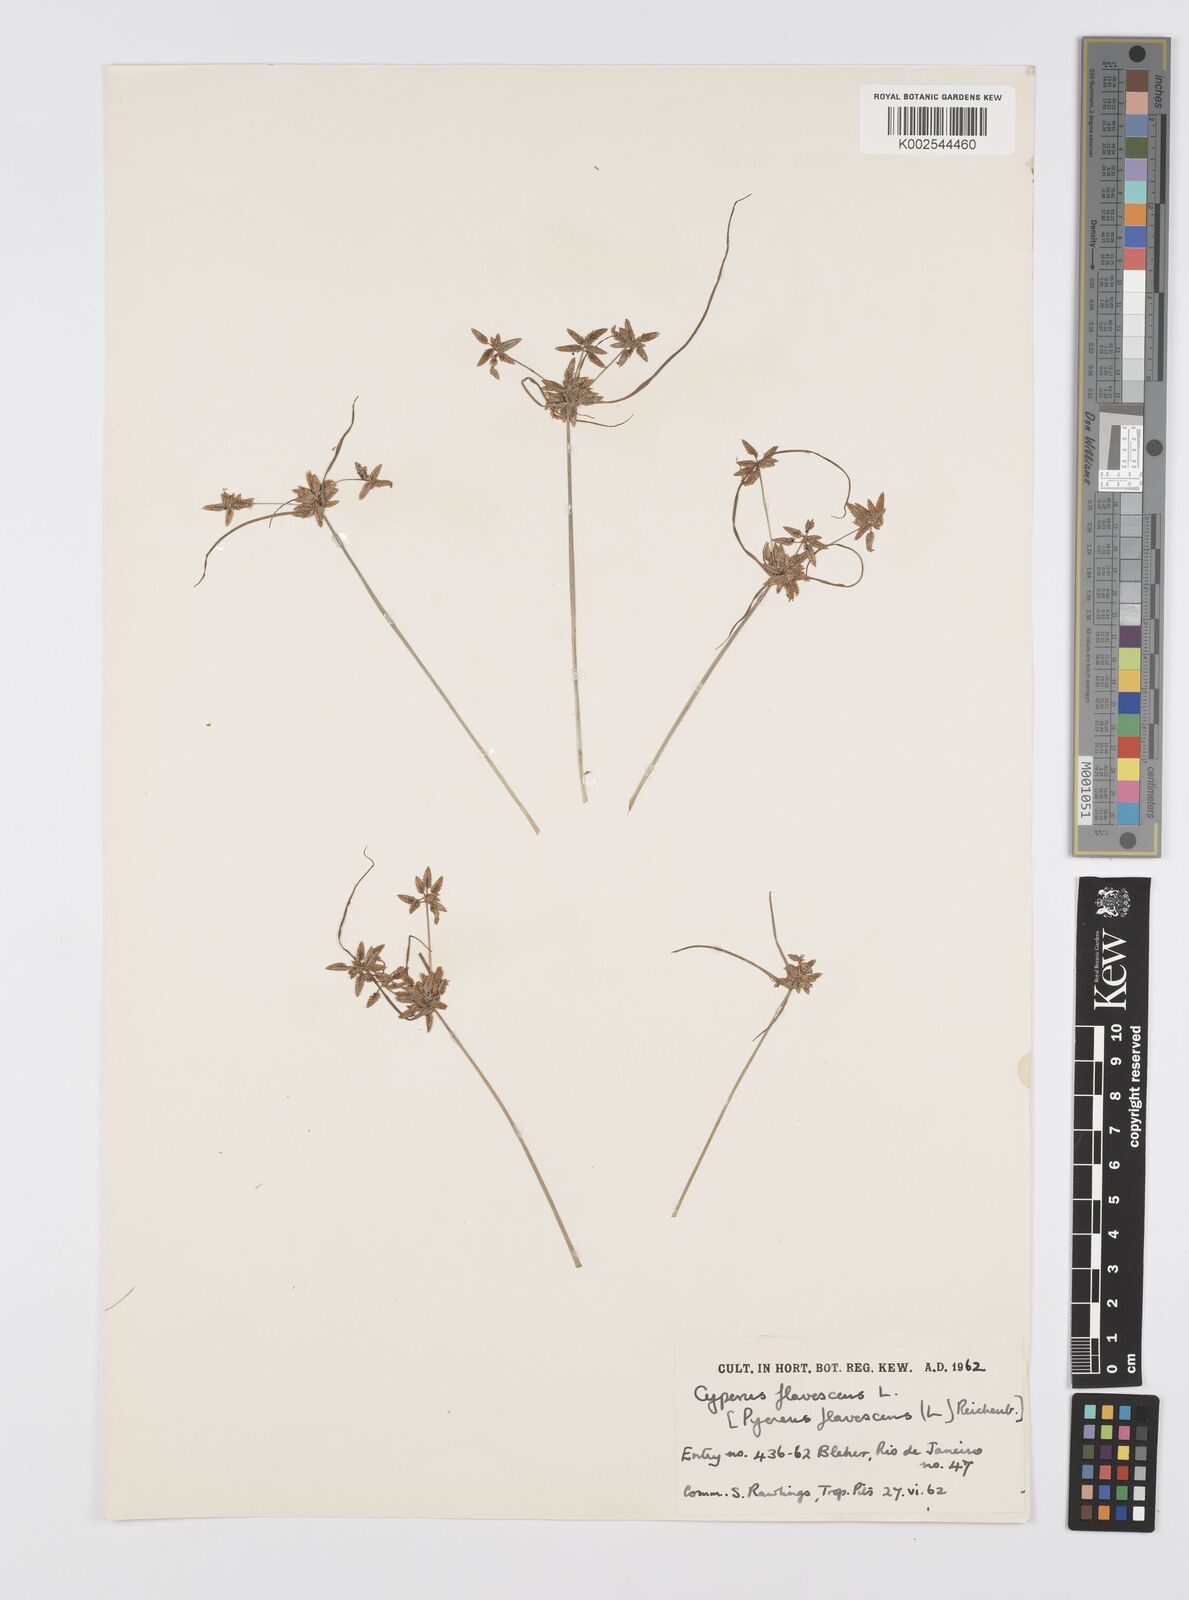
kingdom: Plantae
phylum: Tracheophyta
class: Liliopsida
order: Poales
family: Cyperaceae
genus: Cyperus
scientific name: Cyperus flavescens
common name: Yellow galingale
